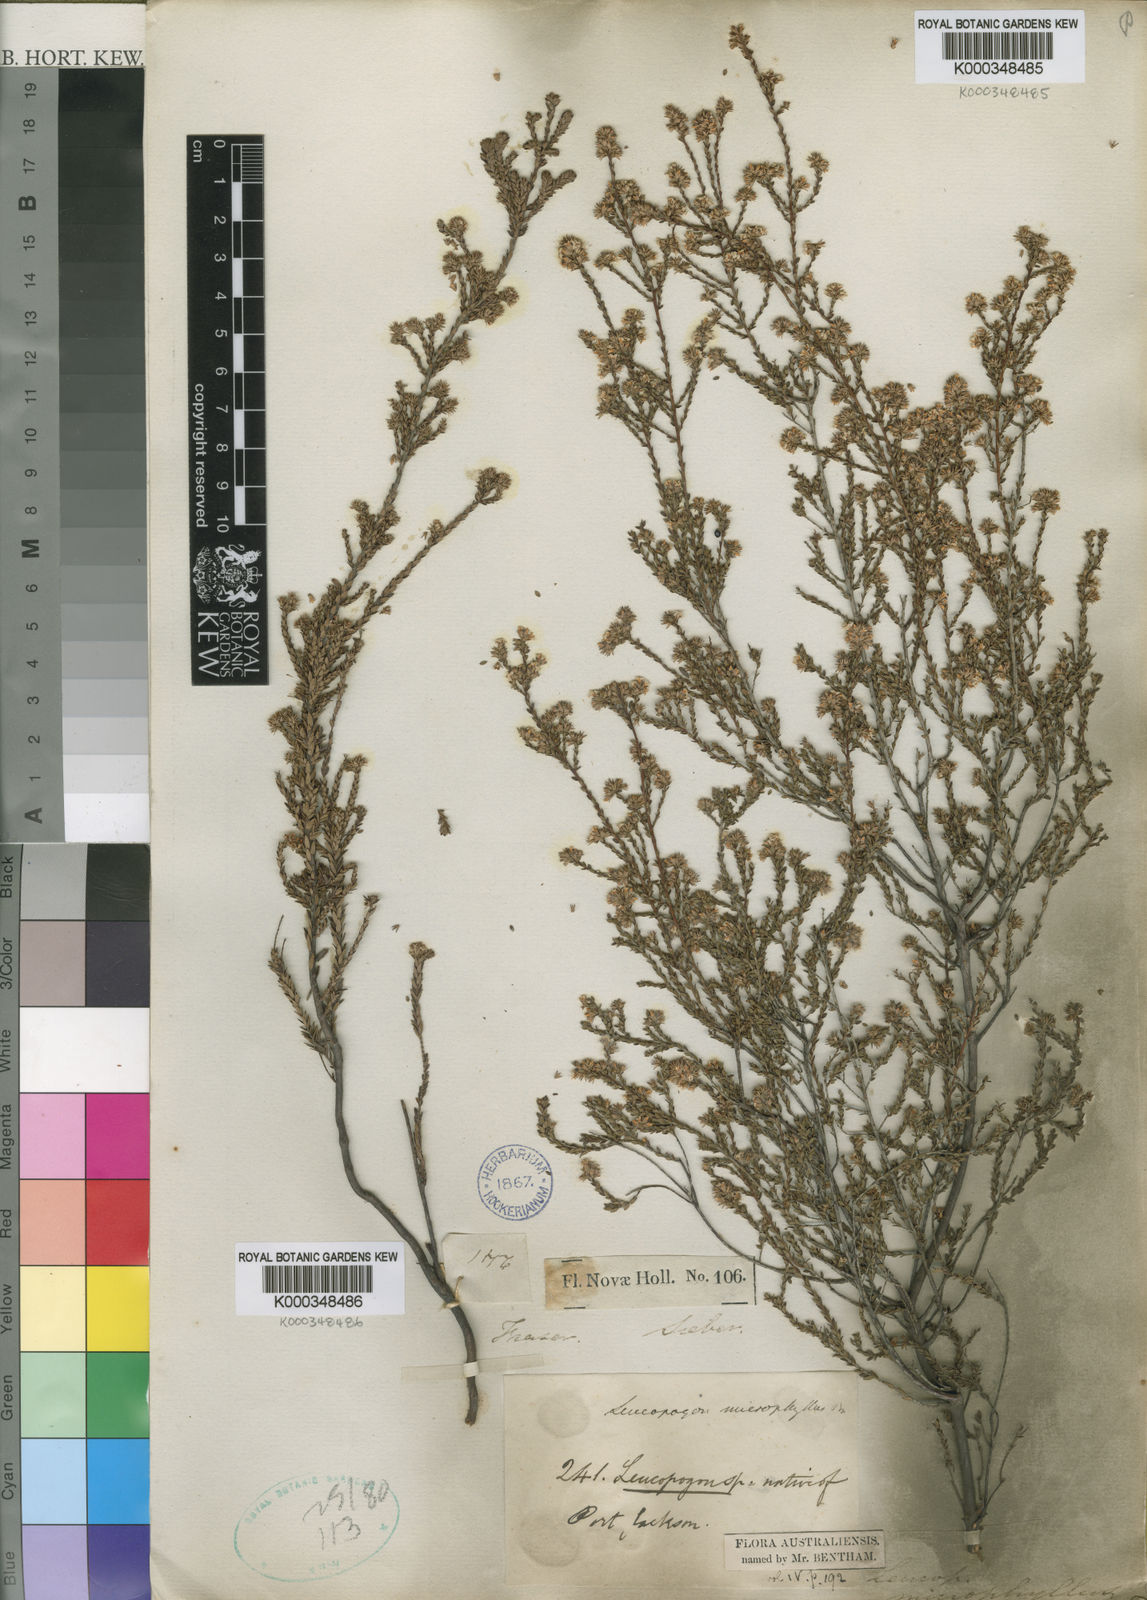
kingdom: Plantae
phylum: Tracheophyta
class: Magnoliopsida
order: Ericales
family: Ericaceae
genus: Leucopogon
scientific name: Leucopogon microphyllus
